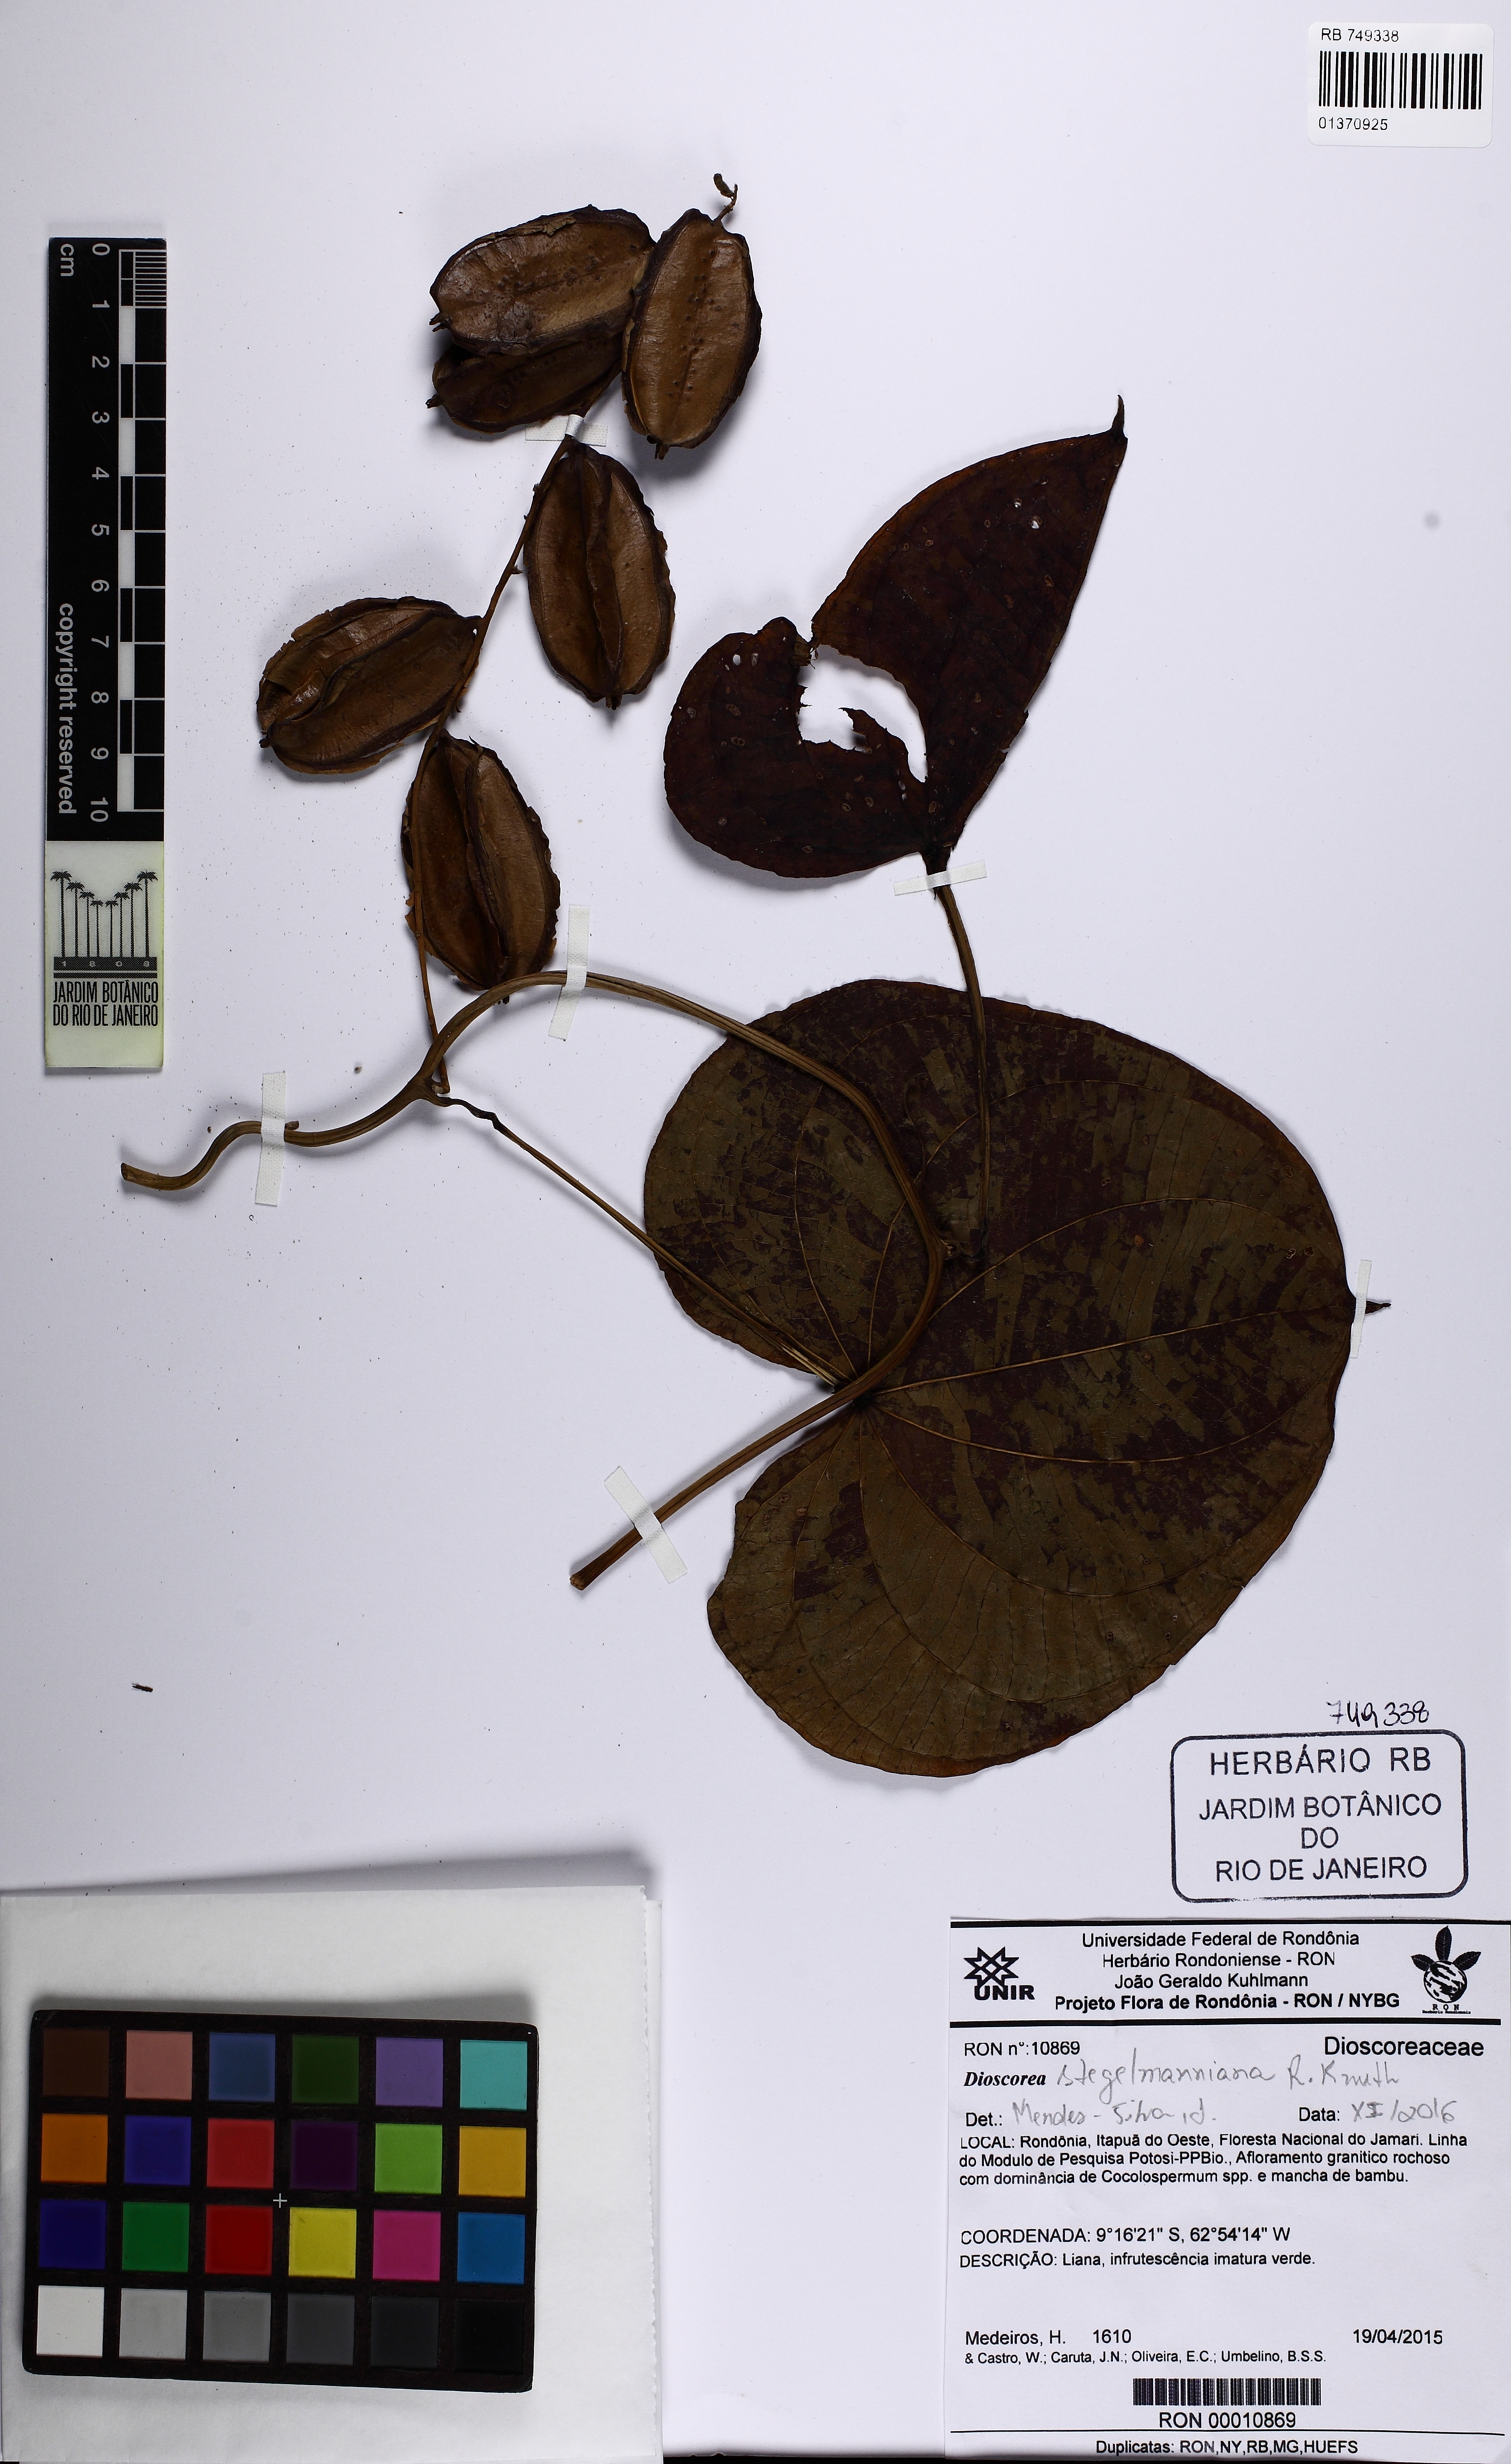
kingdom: Plantae
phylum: Tracheophyta
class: Liliopsida
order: Dioscoreales
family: Dioscoreaceae
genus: Dioscorea
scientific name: Dioscorea stegelmanniana
